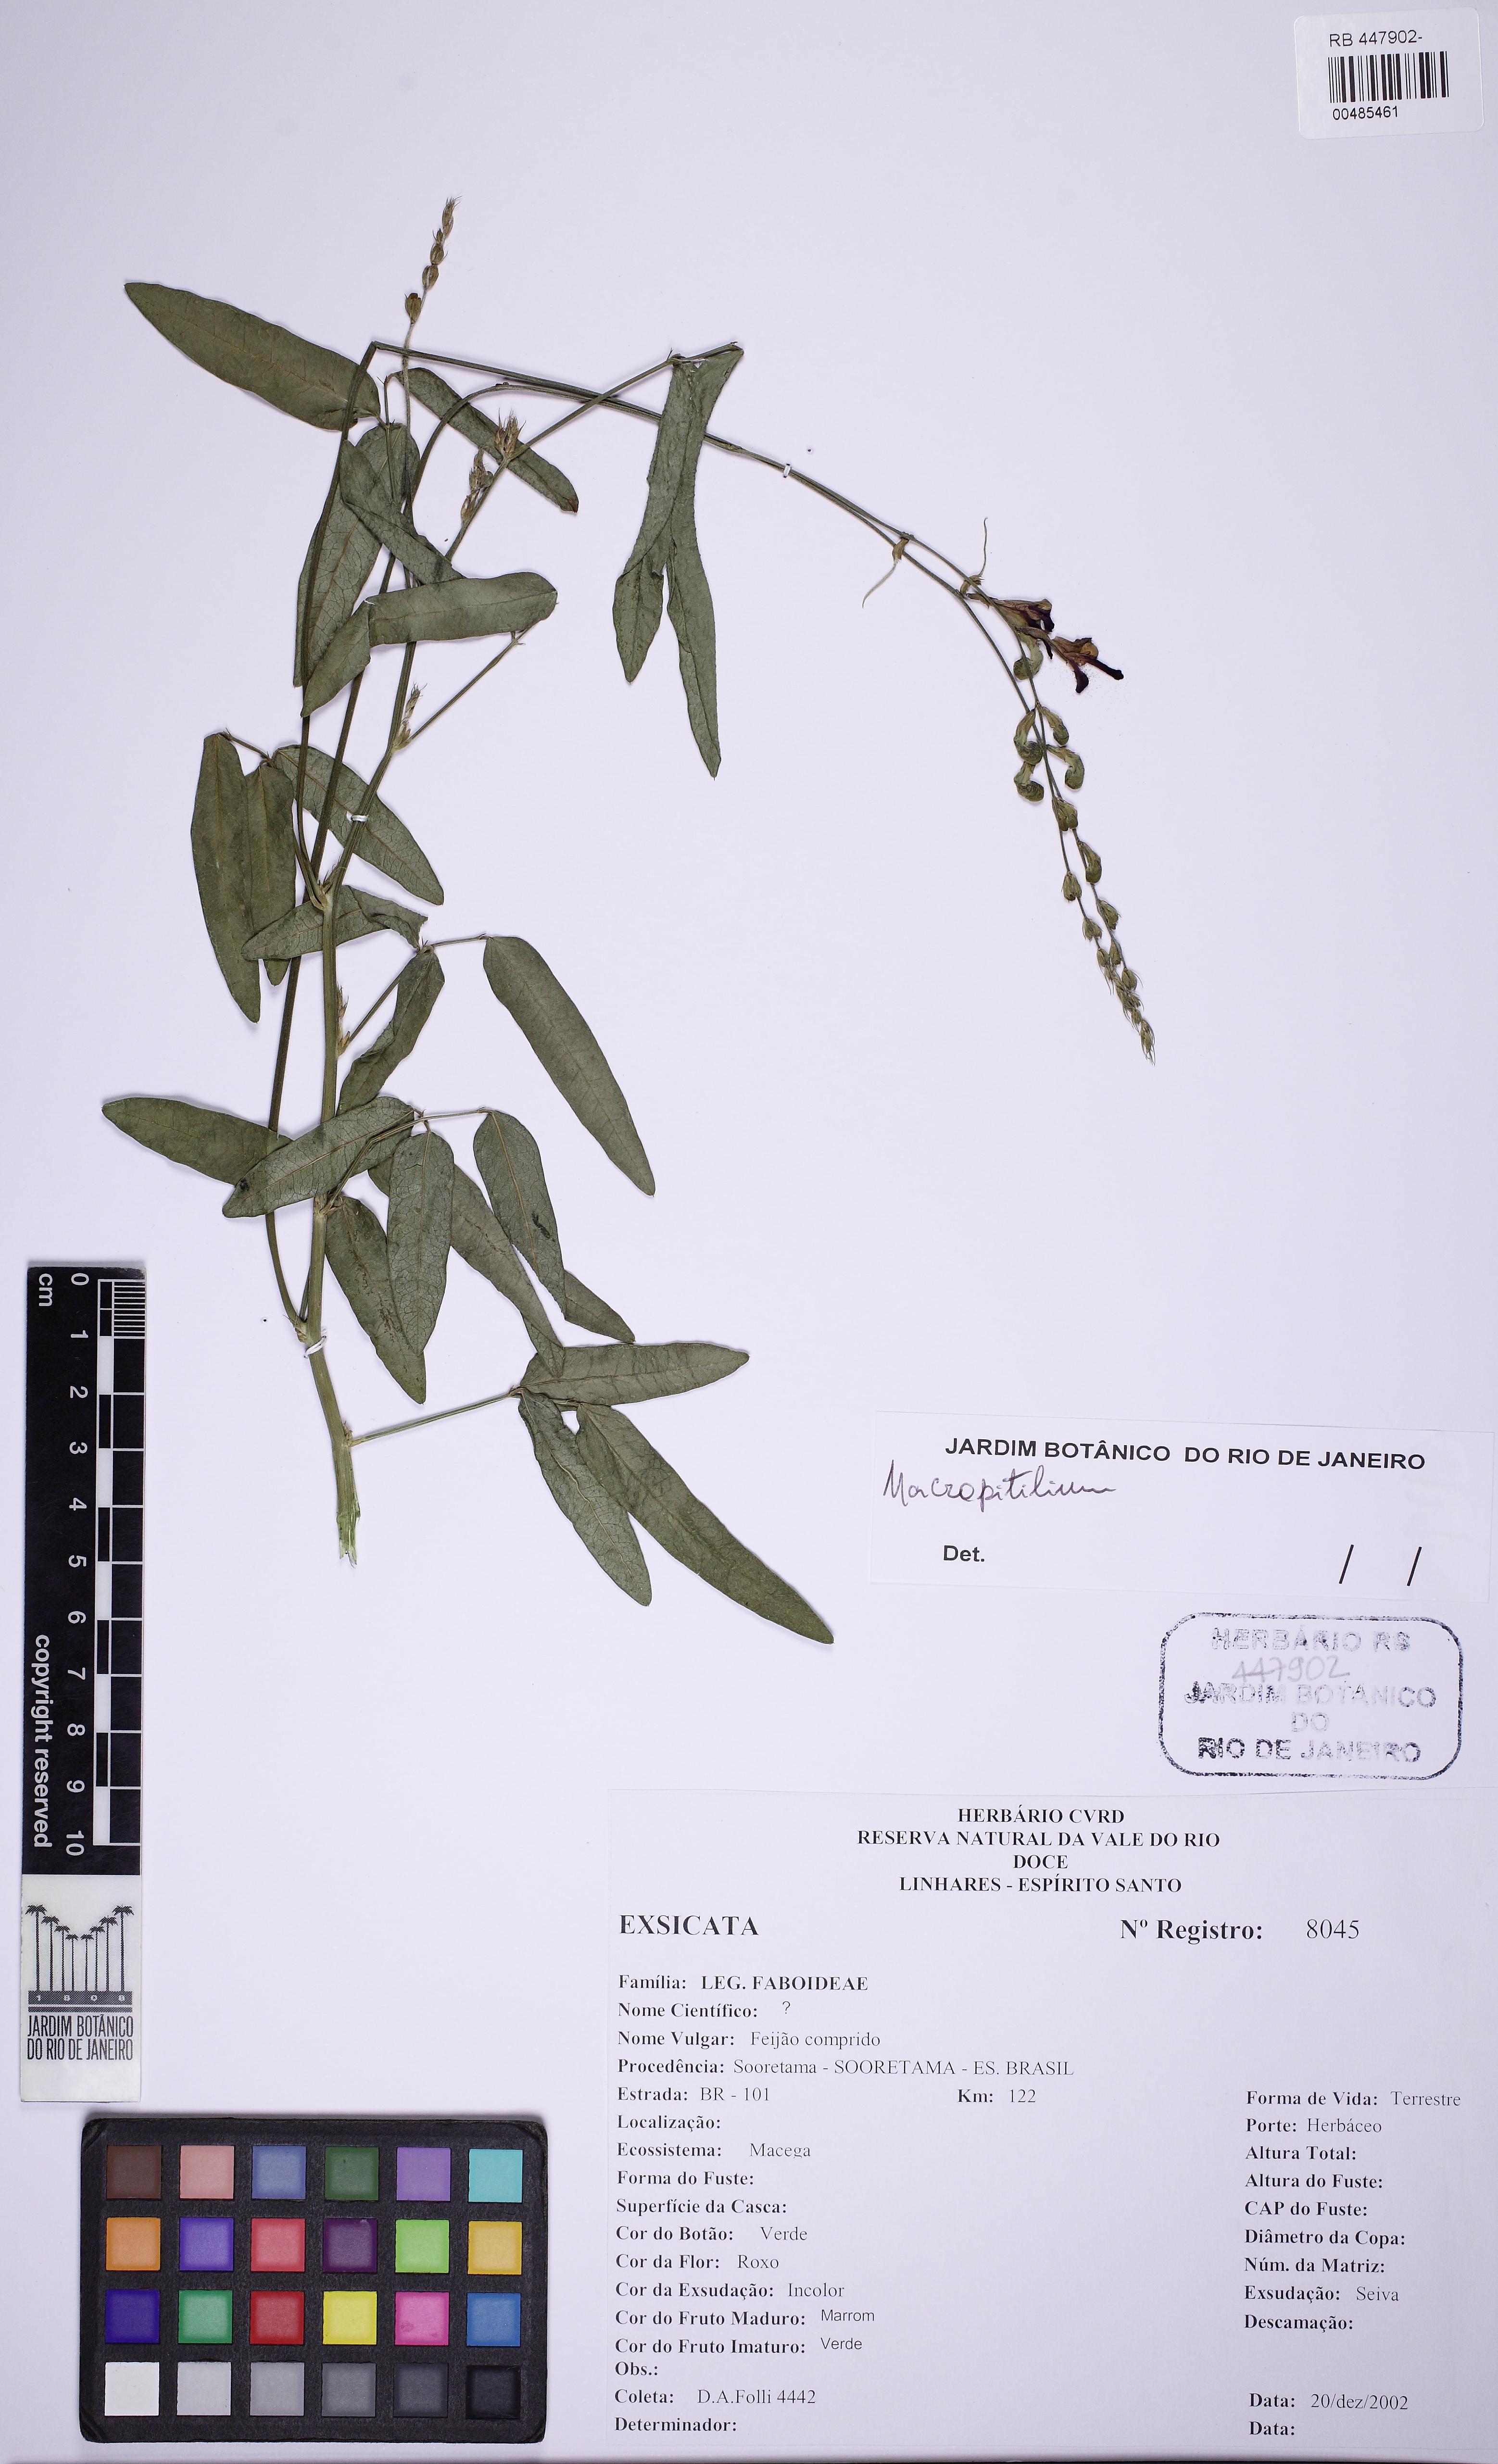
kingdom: Plantae
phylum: Tracheophyta
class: Magnoliopsida
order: Fabales
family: Fabaceae
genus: Macroptilium
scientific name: Macroptilium lathyroides
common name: Wild bushbean
